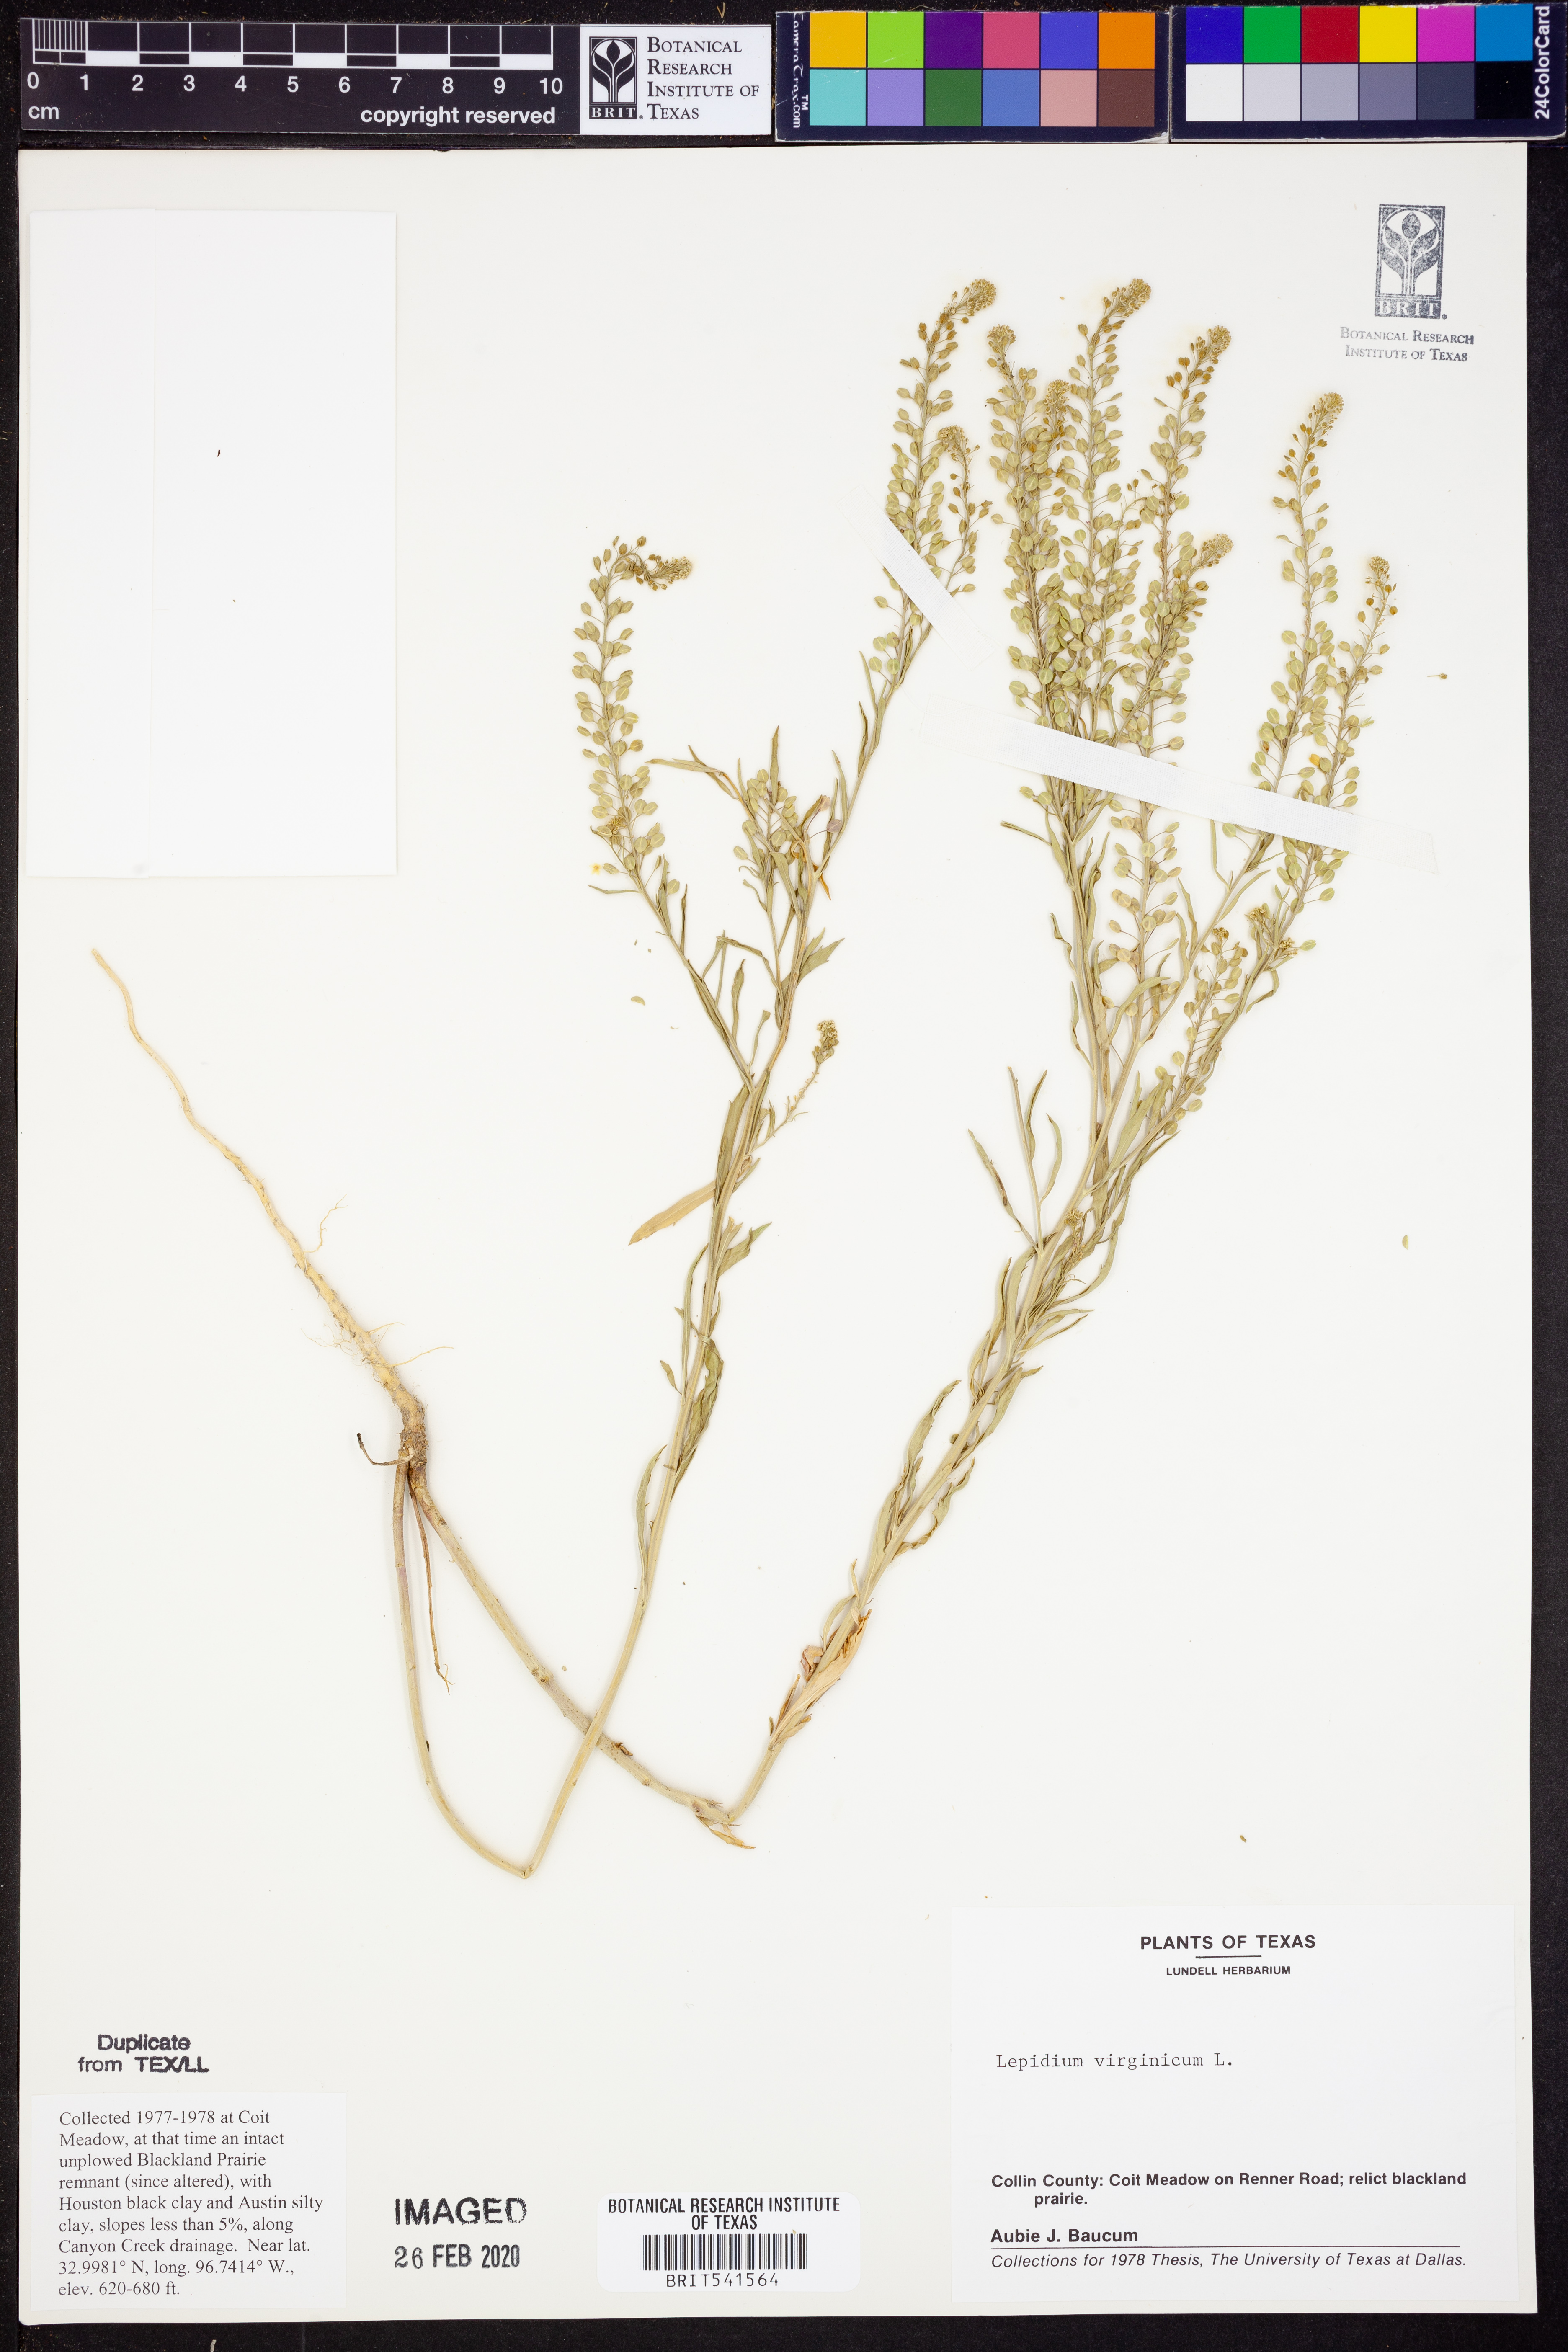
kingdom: Plantae
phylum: Tracheophyta
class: Magnoliopsida
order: Brassicales
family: Brassicaceae
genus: Lepidium
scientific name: Lepidium virginicum
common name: Least pepperwort
